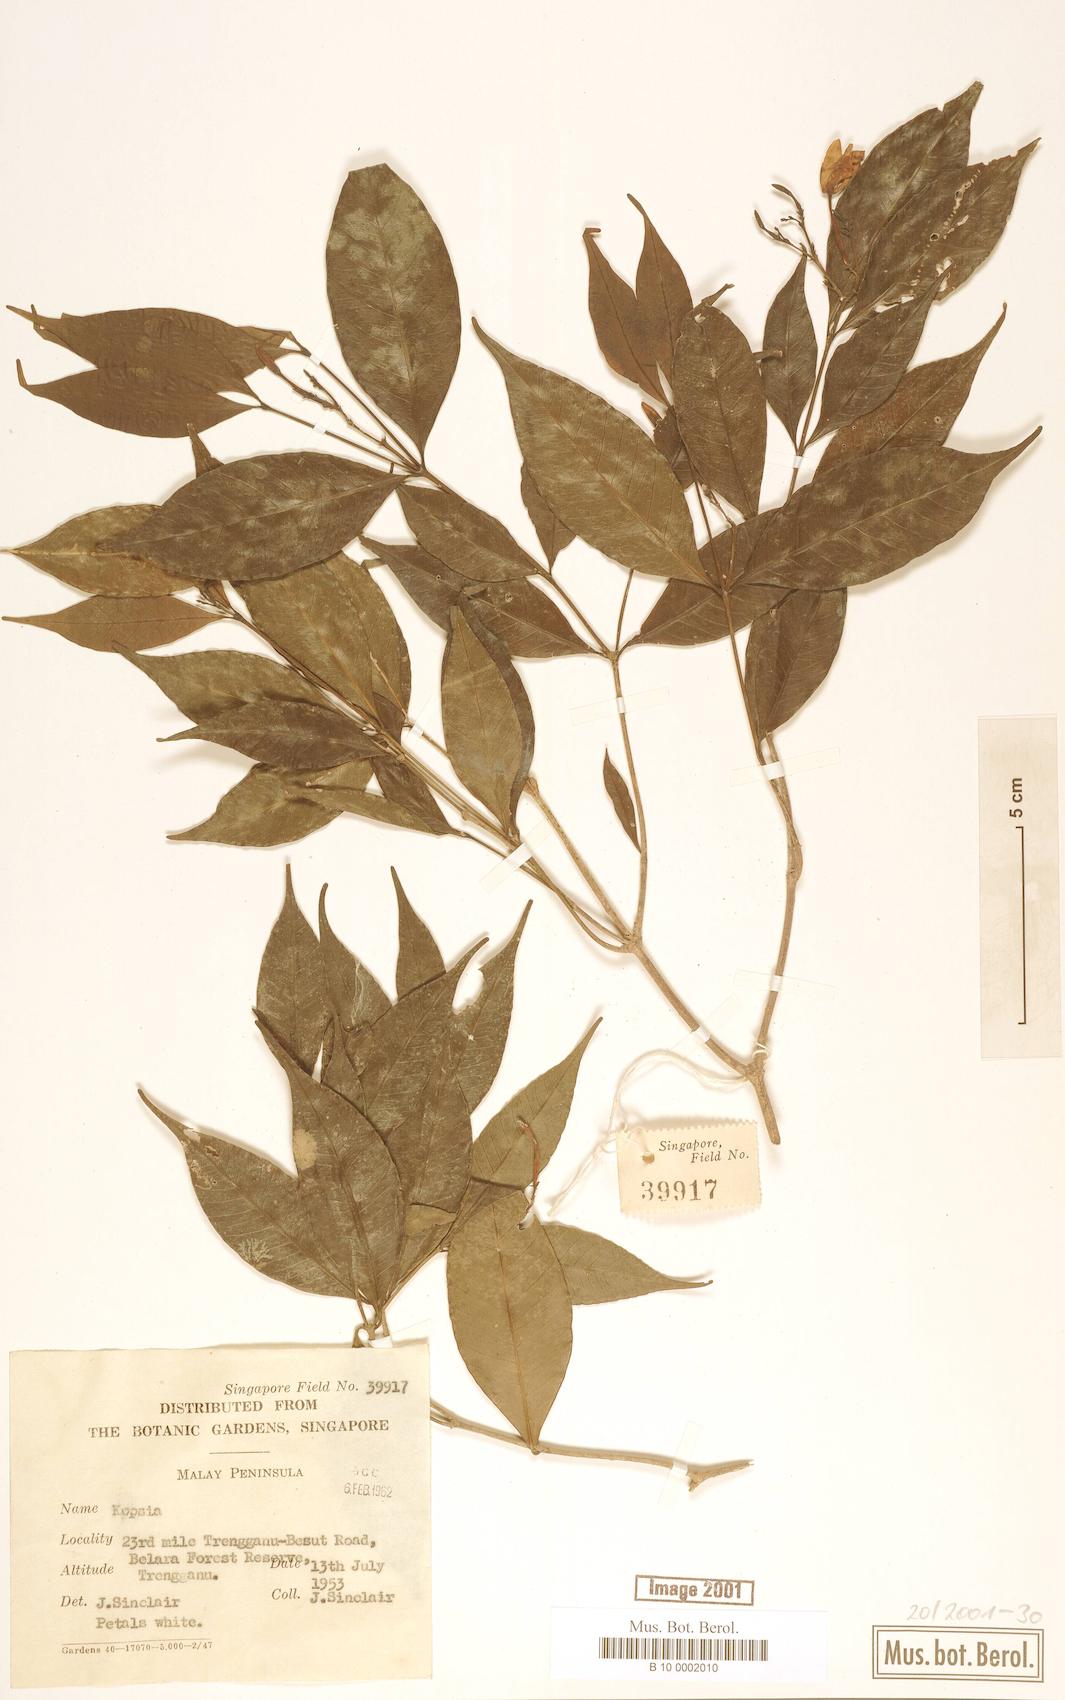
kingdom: Plantae
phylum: Tracheophyta
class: Magnoliopsida
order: Gentianales
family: Apocynaceae
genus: Kopsia
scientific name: Kopsia
